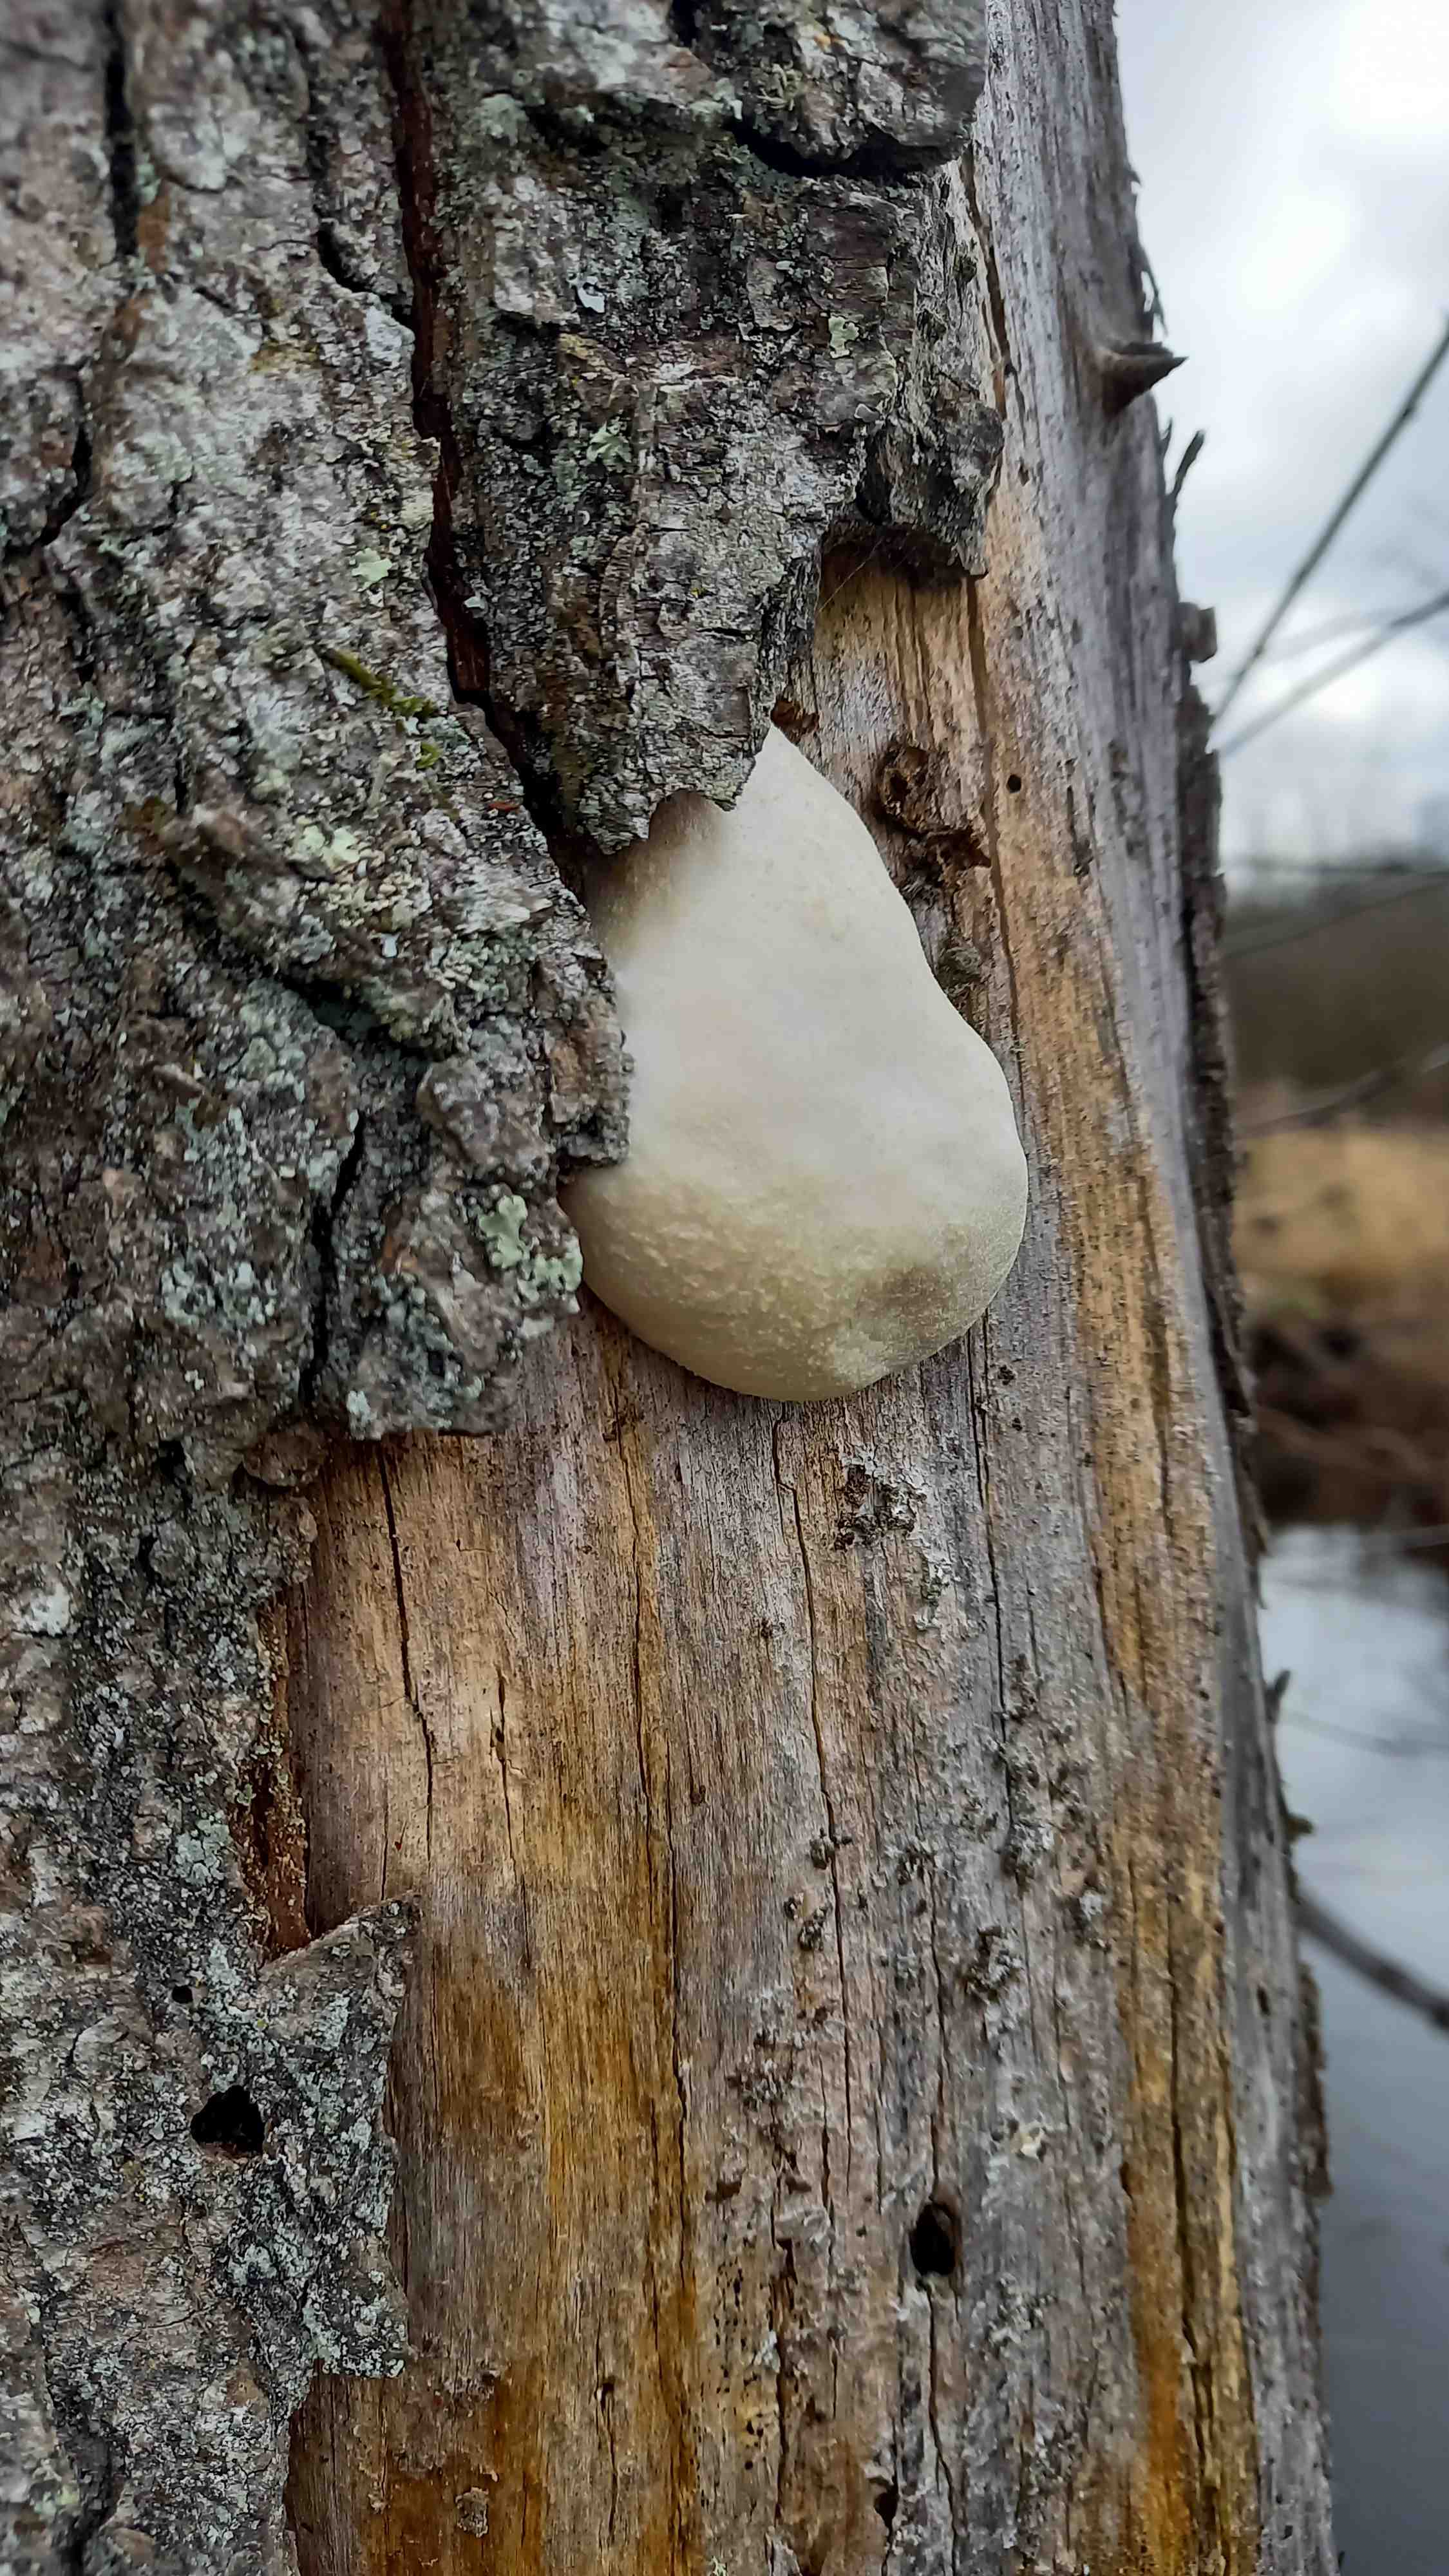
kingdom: Protozoa
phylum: Mycetozoa
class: Myxomycetes
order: Cribrariales
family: Tubiferaceae
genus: Reticularia
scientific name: Reticularia lycoperdon
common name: skinnende støvpude
